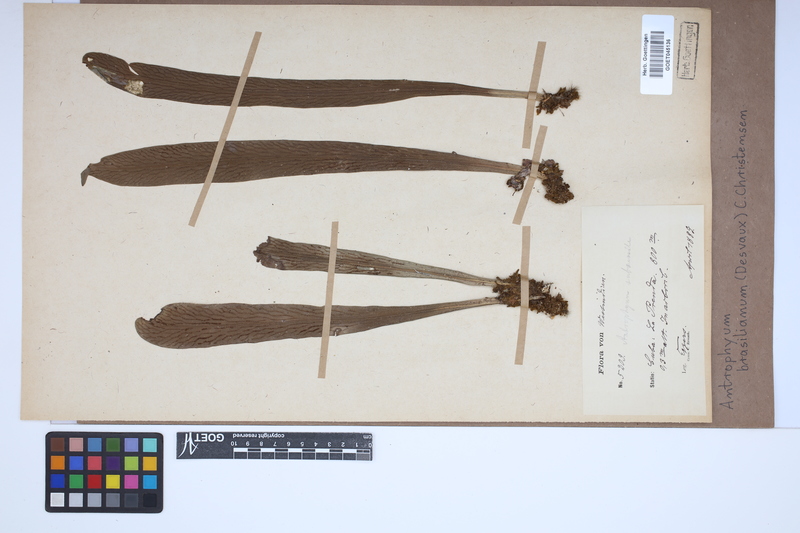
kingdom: Plantae
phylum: Tracheophyta
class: Polypodiopsida
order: Polypodiales
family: Pteridaceae
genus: Polytaenium
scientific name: Polytaenium cajenense
